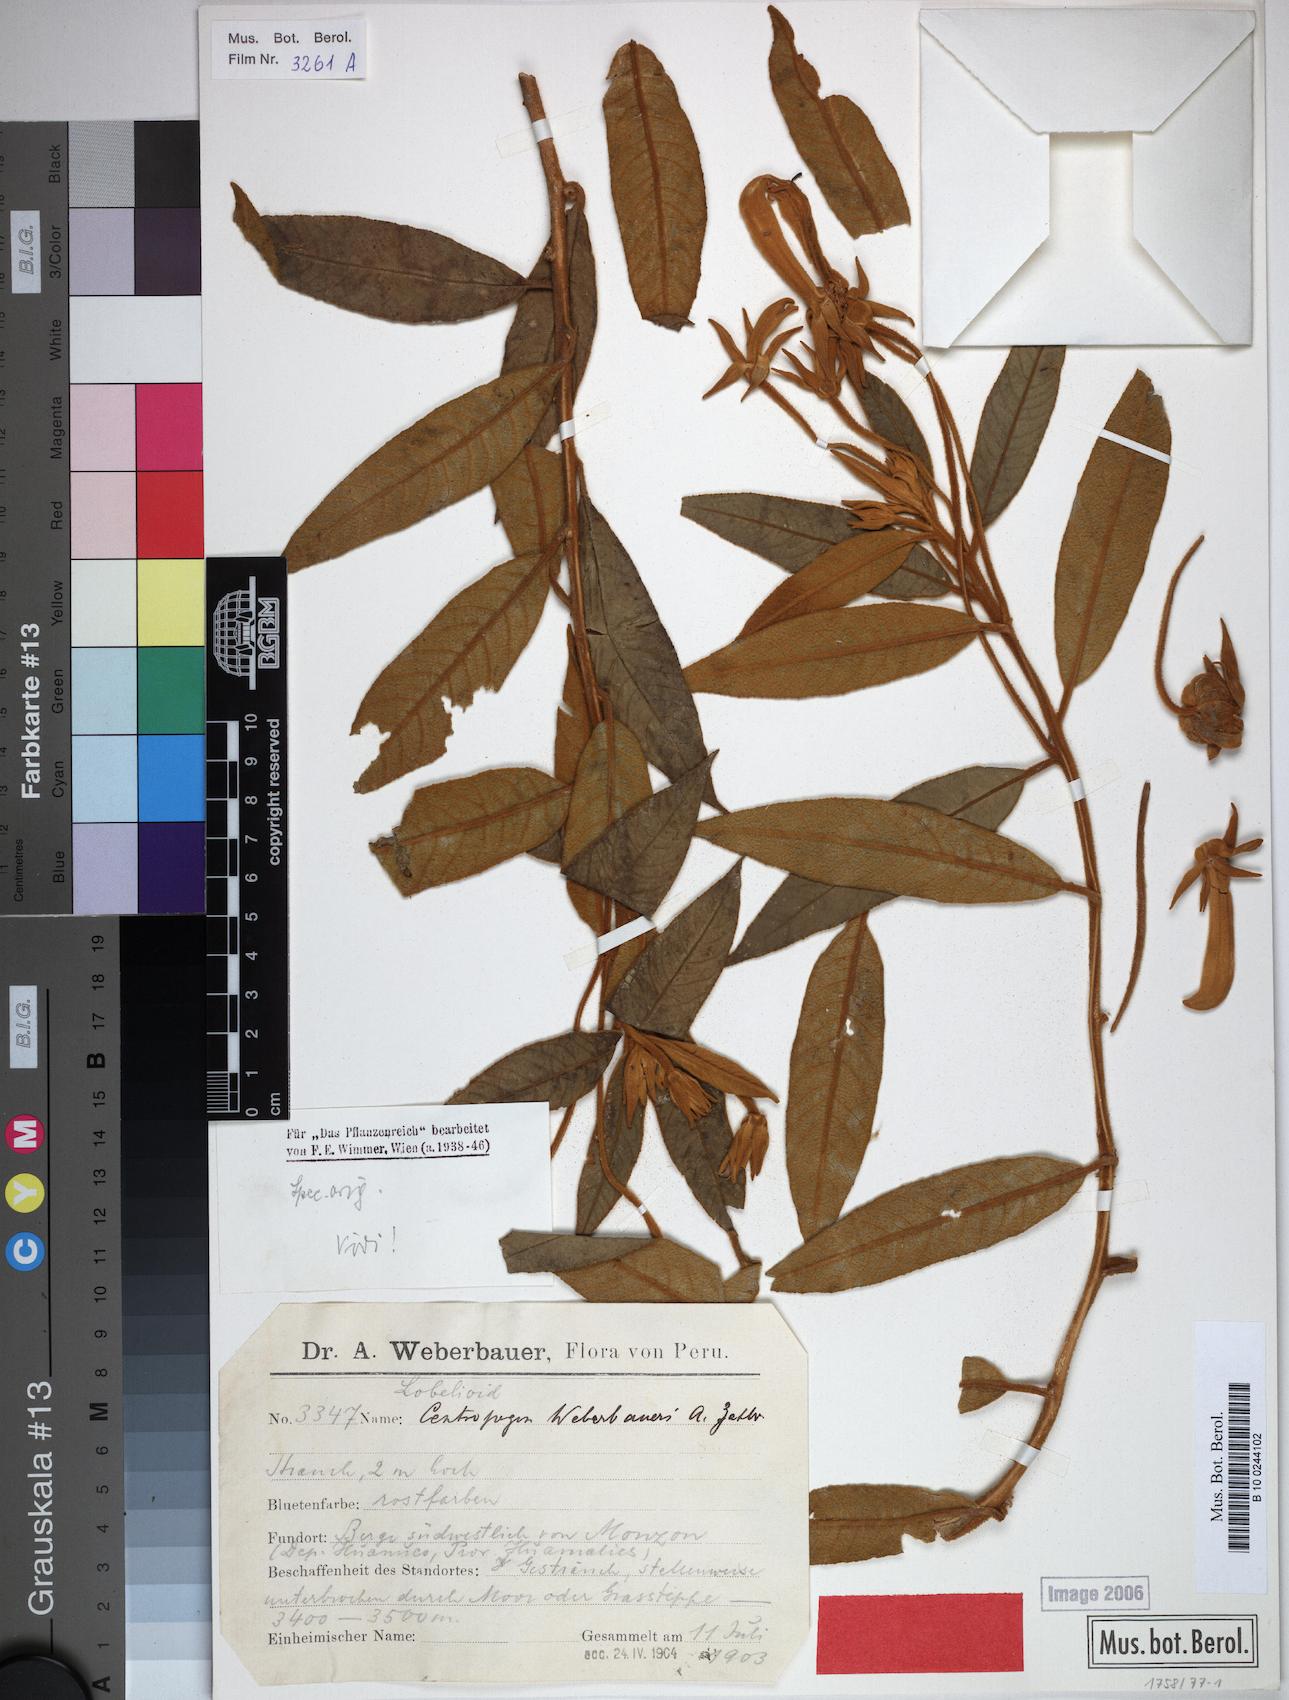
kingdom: Plantae
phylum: Tracheophyta
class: Magnoliopsida
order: Asterales
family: Campanulaceae
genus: Centropogon
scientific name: Centropogon weberbaueri
